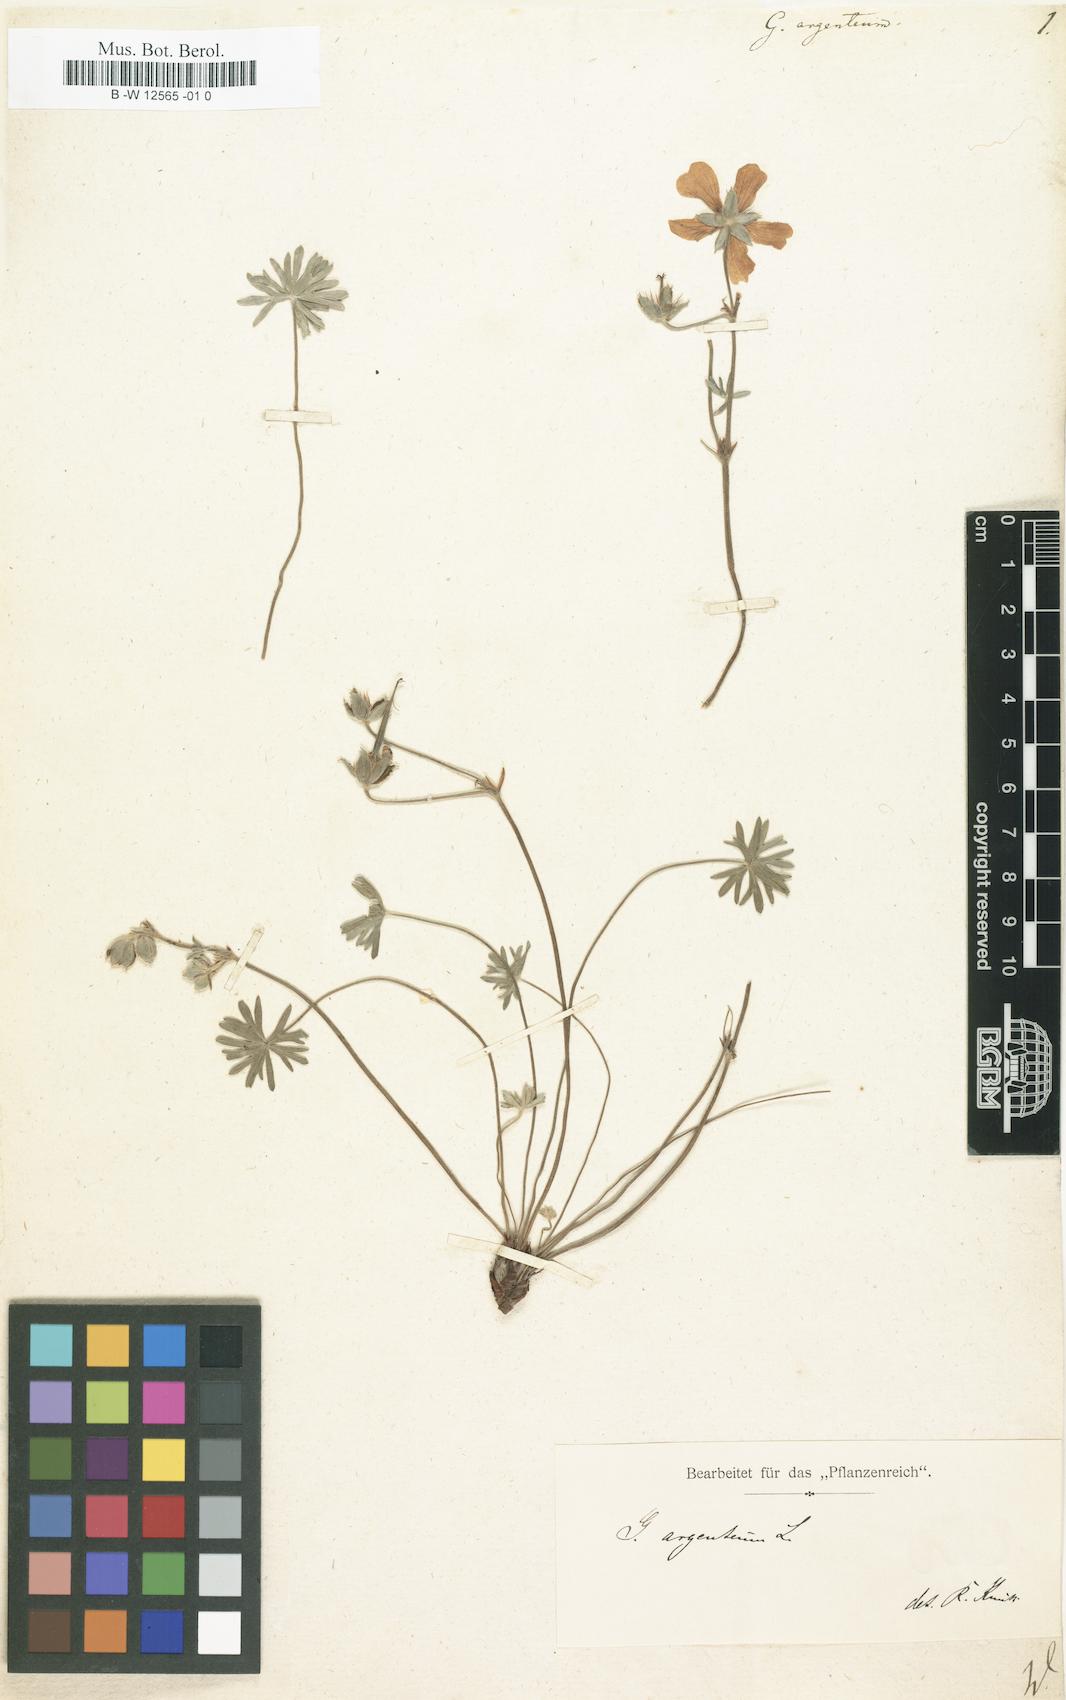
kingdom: Plantae
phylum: Tracheophyta
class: Magnoliopsida
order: Geraniales
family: Geraniaceae
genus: Geranium
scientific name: Geranium argenteum
